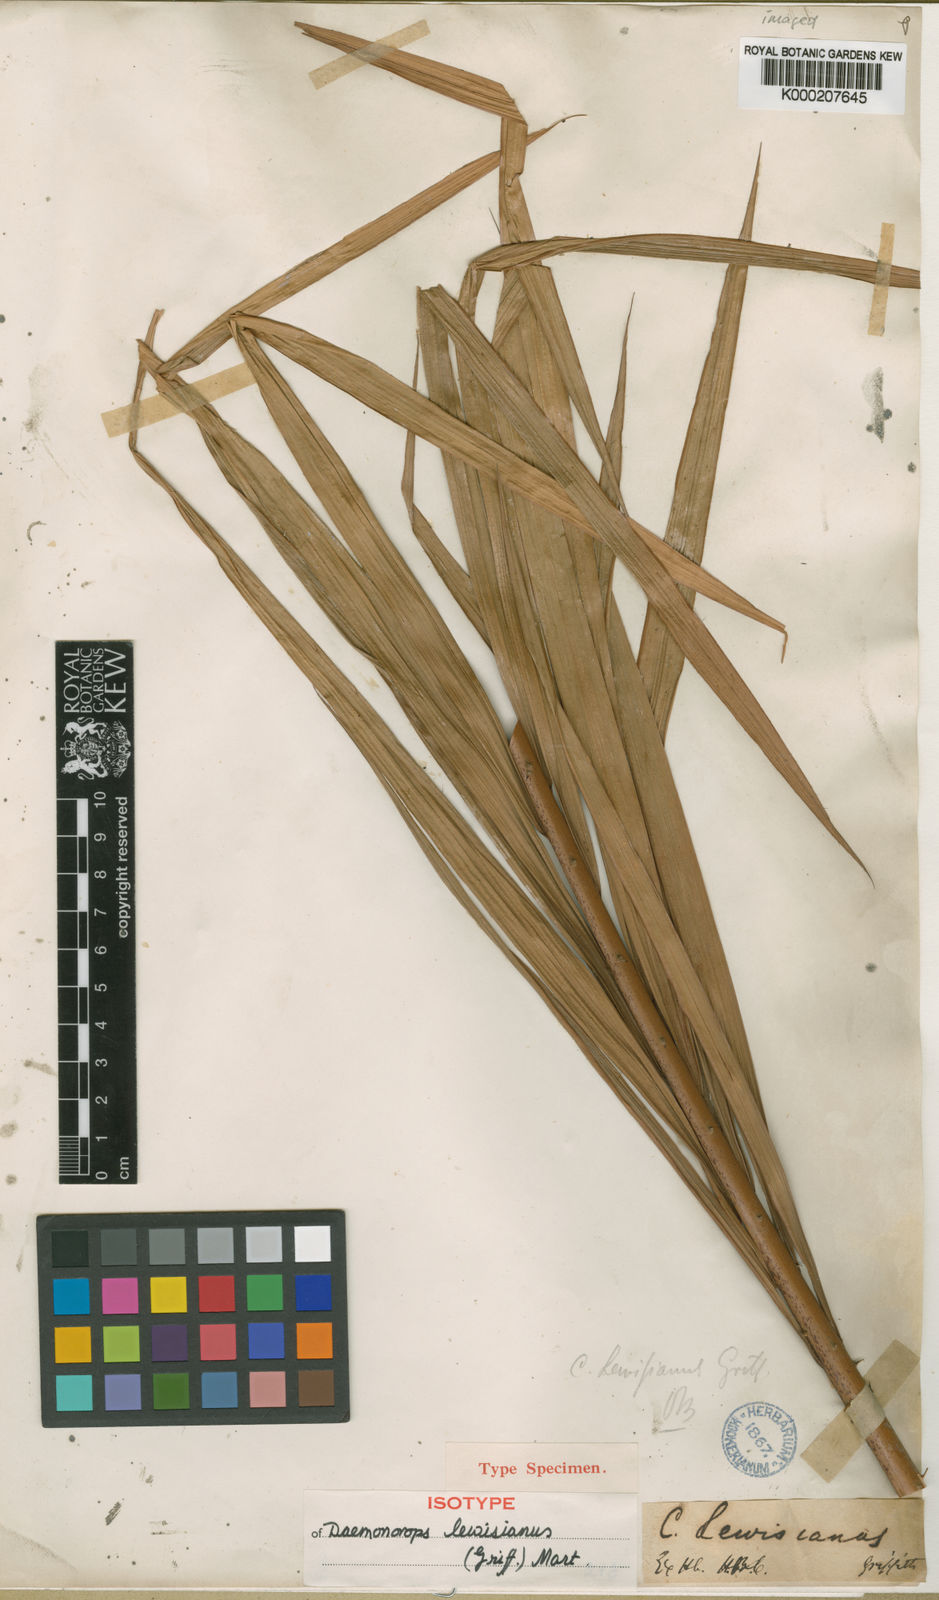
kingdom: Plantae
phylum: Tracheophyta
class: Liliopsida
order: Arecales
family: Arecaceae
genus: Calamus
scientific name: Calamus melanochaetes
